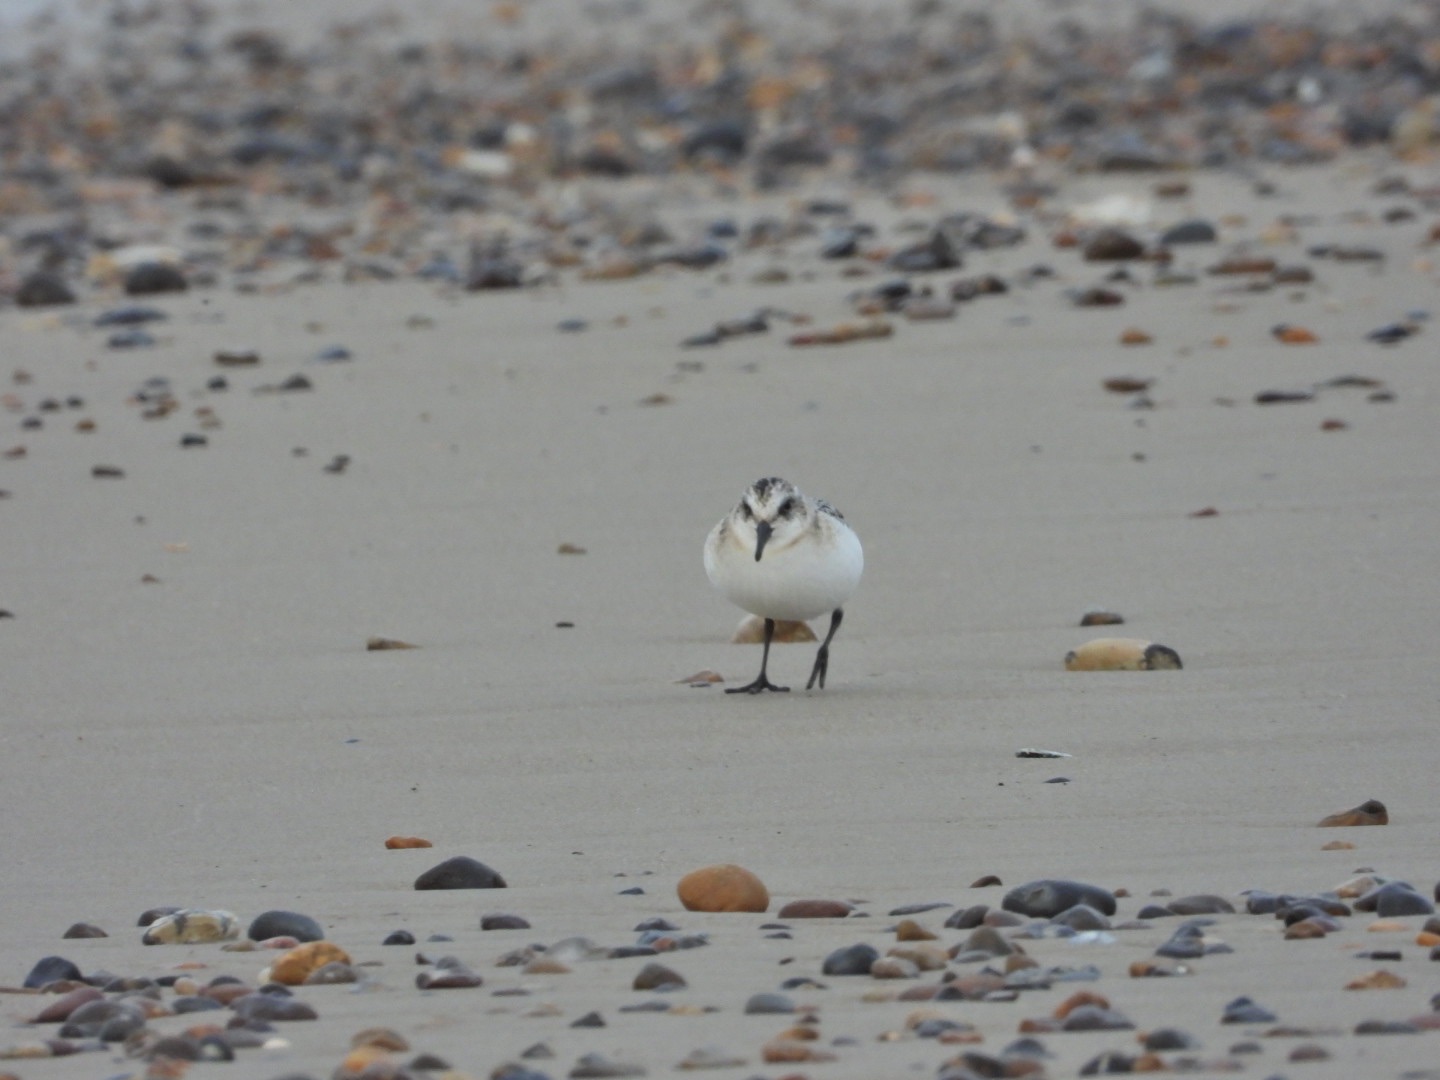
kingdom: Animalia
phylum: Chordata
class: Aves
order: Charadriiformes
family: Scolopacidae
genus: Calidris
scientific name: Calidris alba
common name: Sandløber
